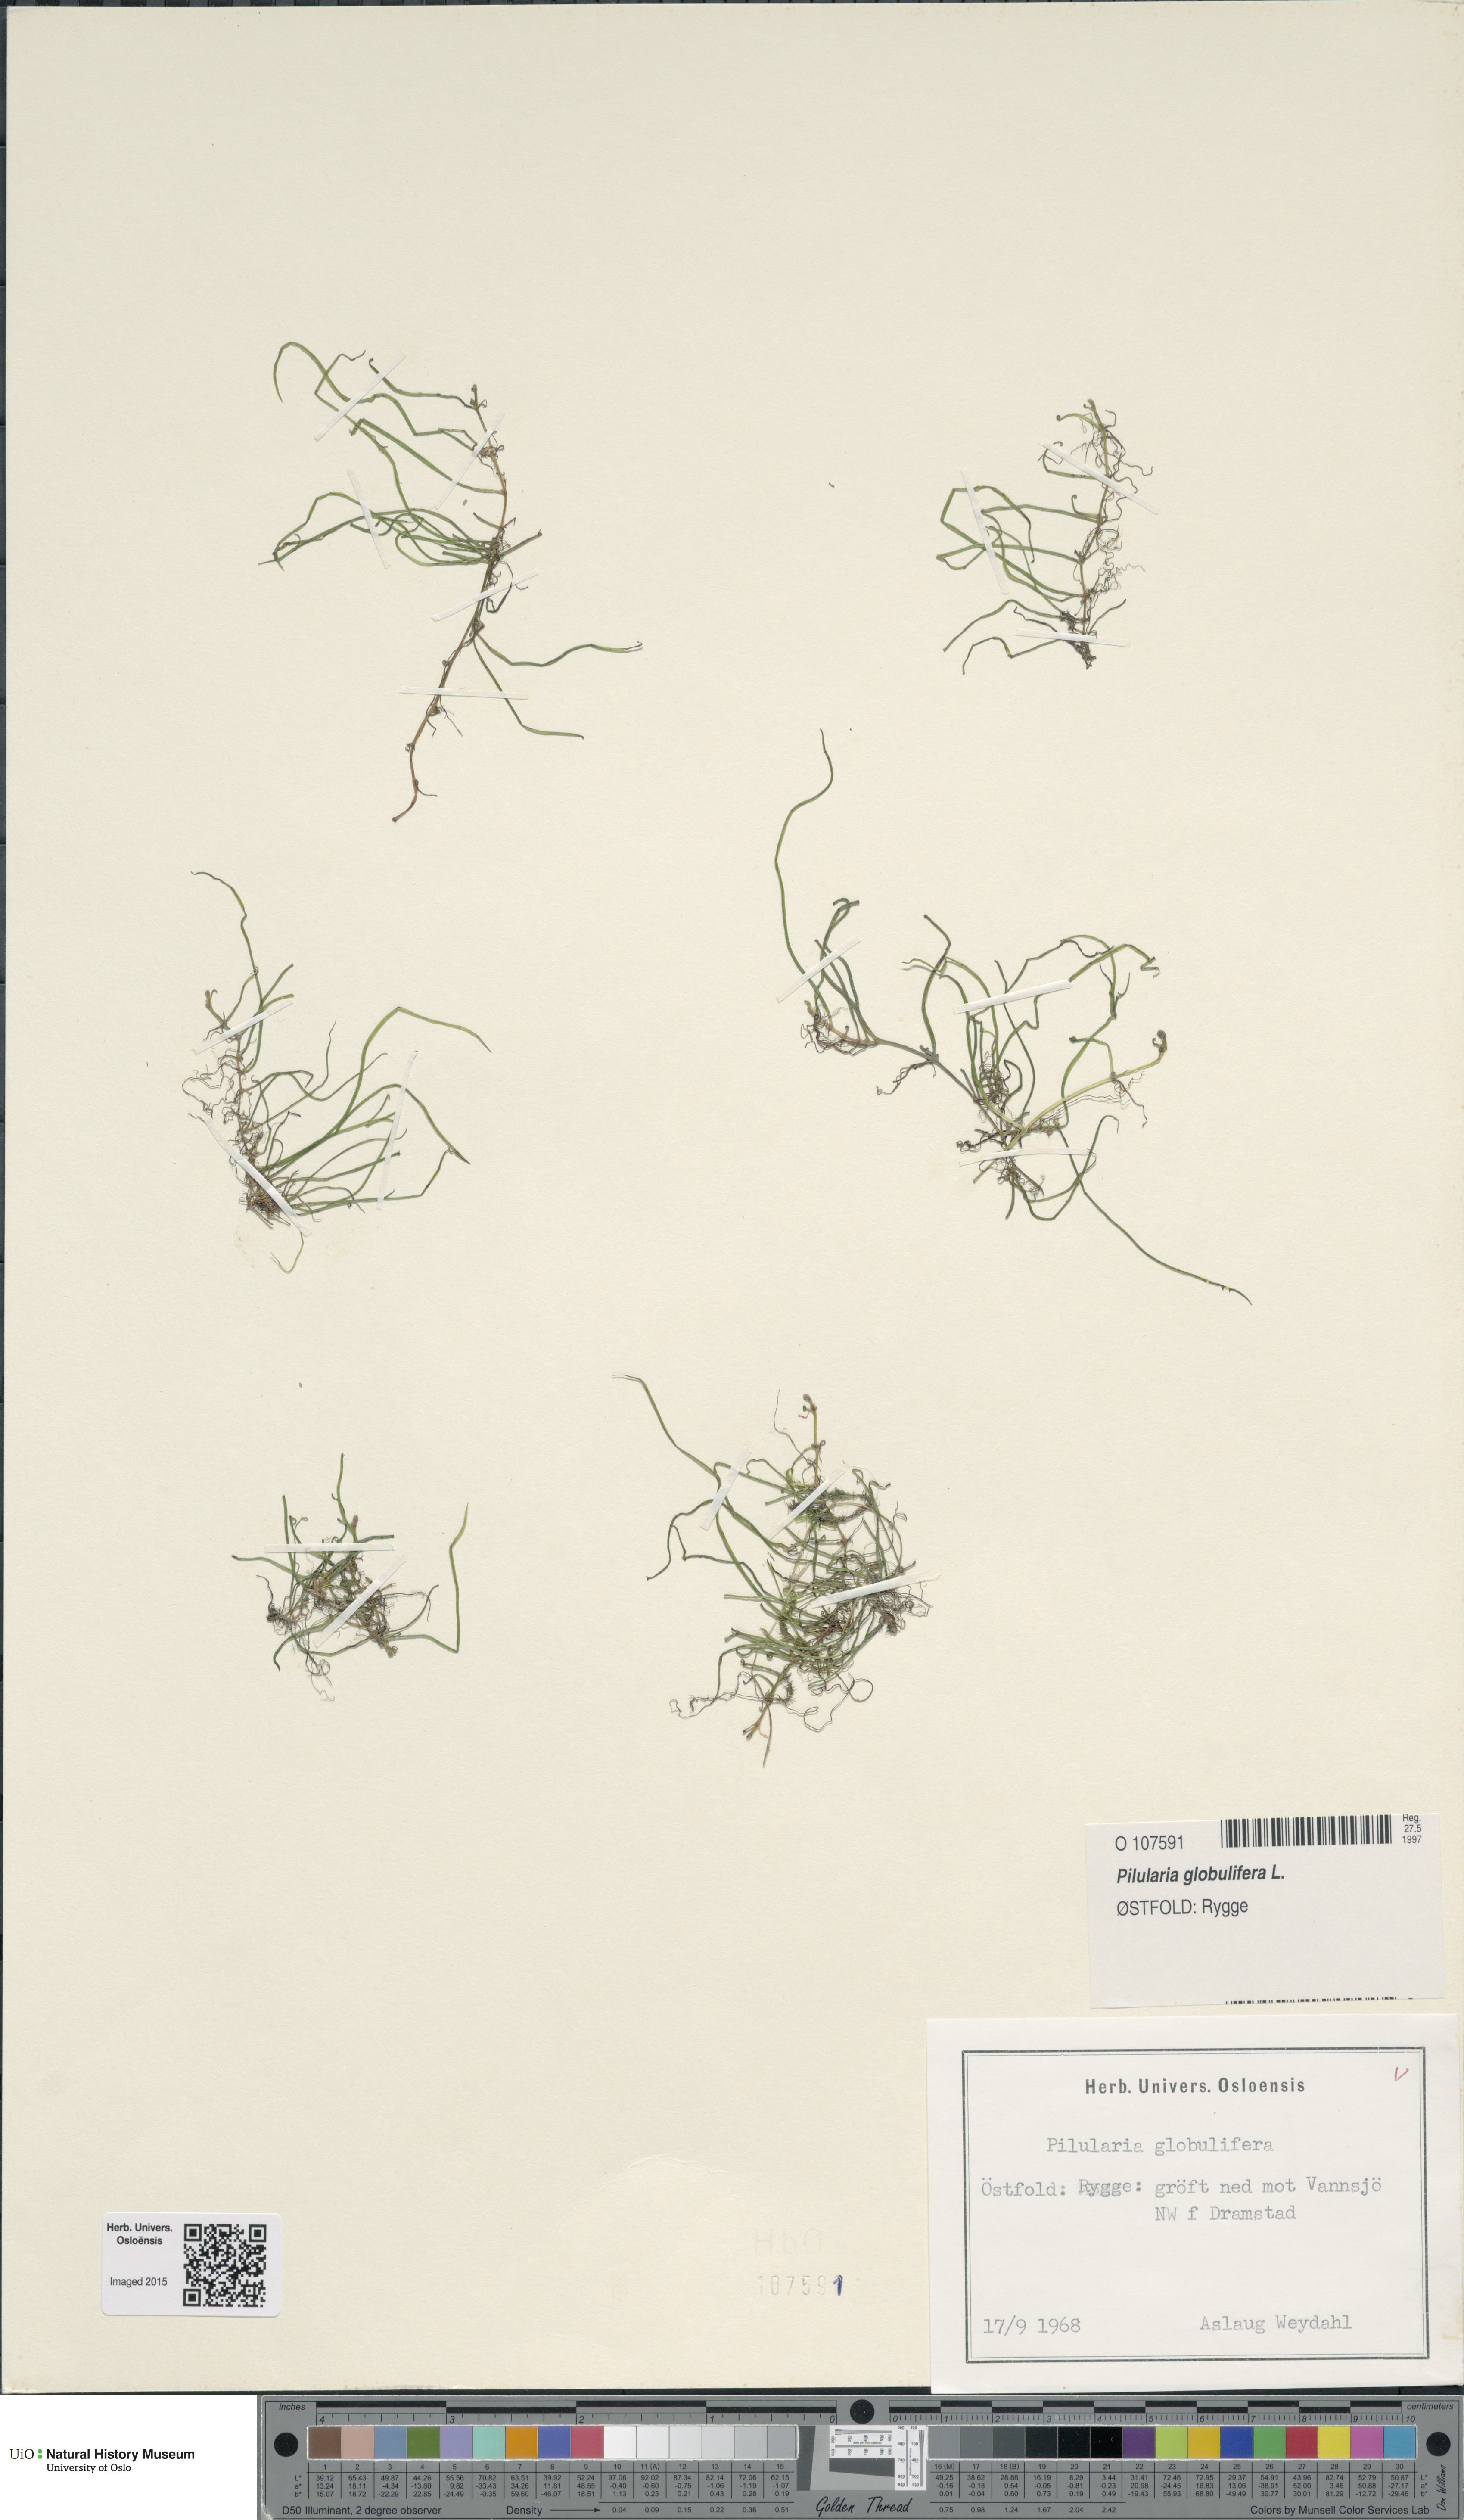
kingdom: Plantae
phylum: Tracheophyta
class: Polypodiopsida
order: Salviniales
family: Marsileaceae
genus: Pilularia
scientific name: Pilularia globulifera
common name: Pillwort
